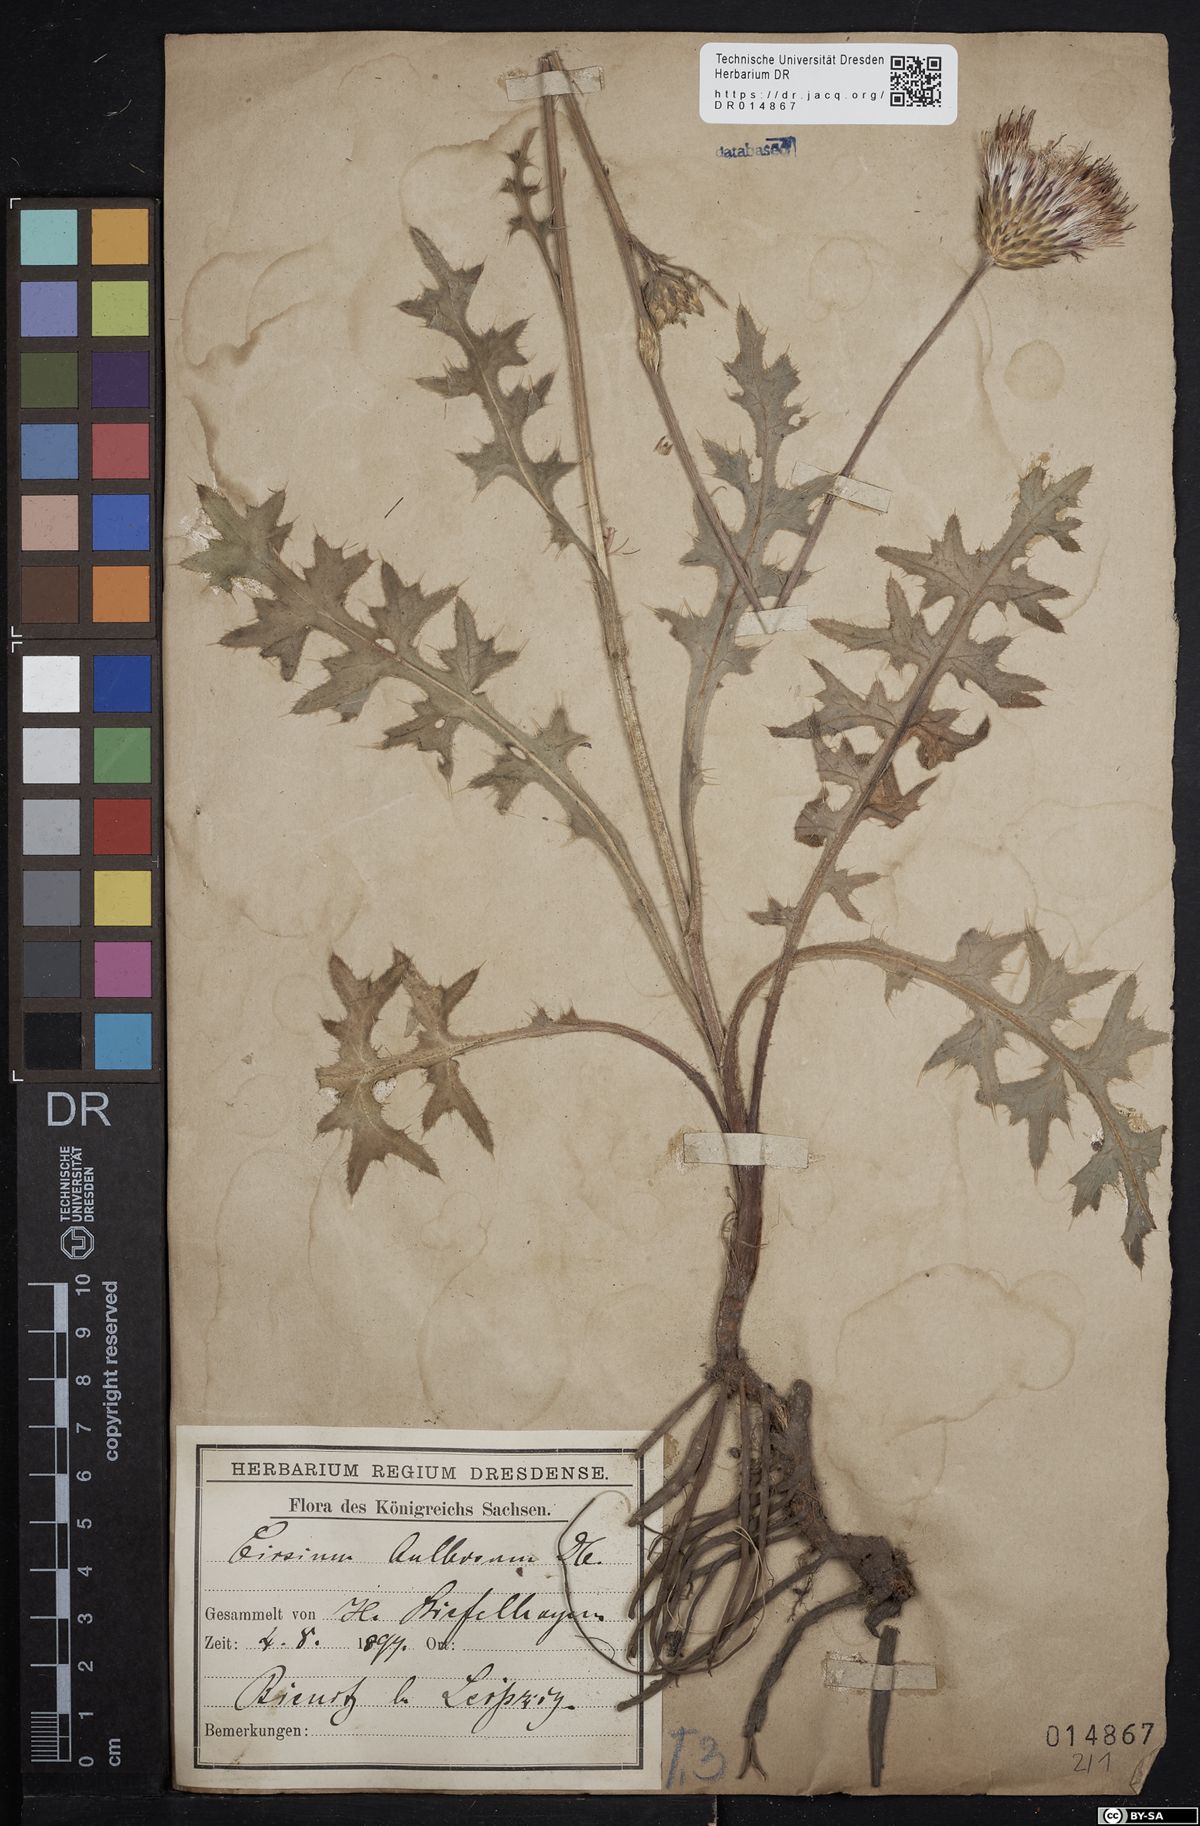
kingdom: Plantae
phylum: Tracheophyta
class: Magnoliopsida
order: Asterales
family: Asteraceae
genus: Cirsium
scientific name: Cirsium tuberosum
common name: Tuberous thistle
